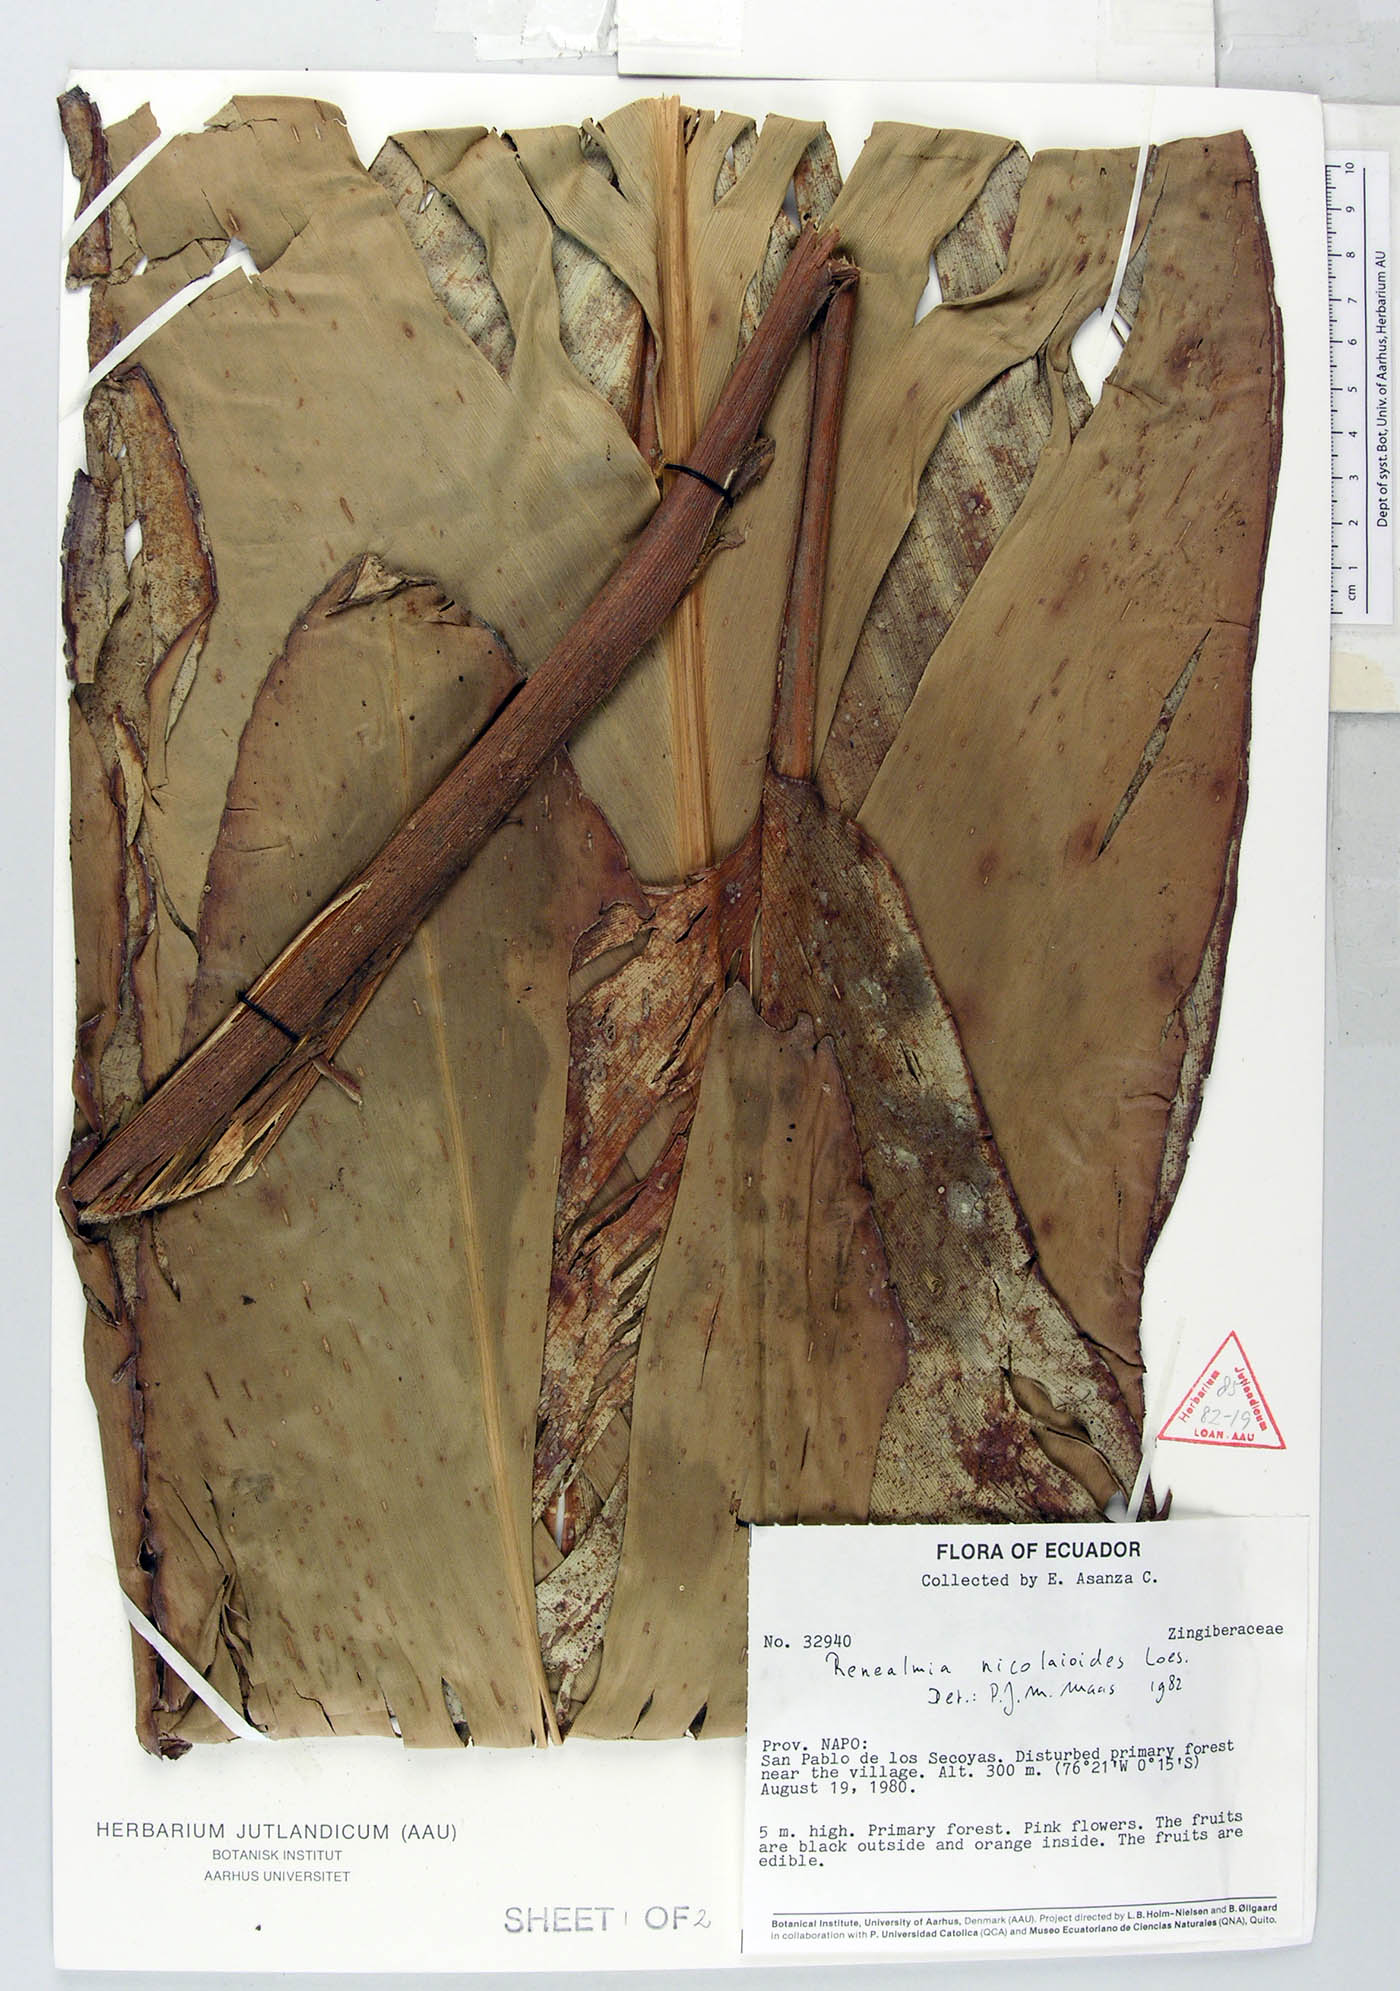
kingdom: Plantae
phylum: Tracheophyta
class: Liliopsida
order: Zingiberales
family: Zingiberaceae
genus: Renealmia
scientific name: Renealmia nicolaioides
